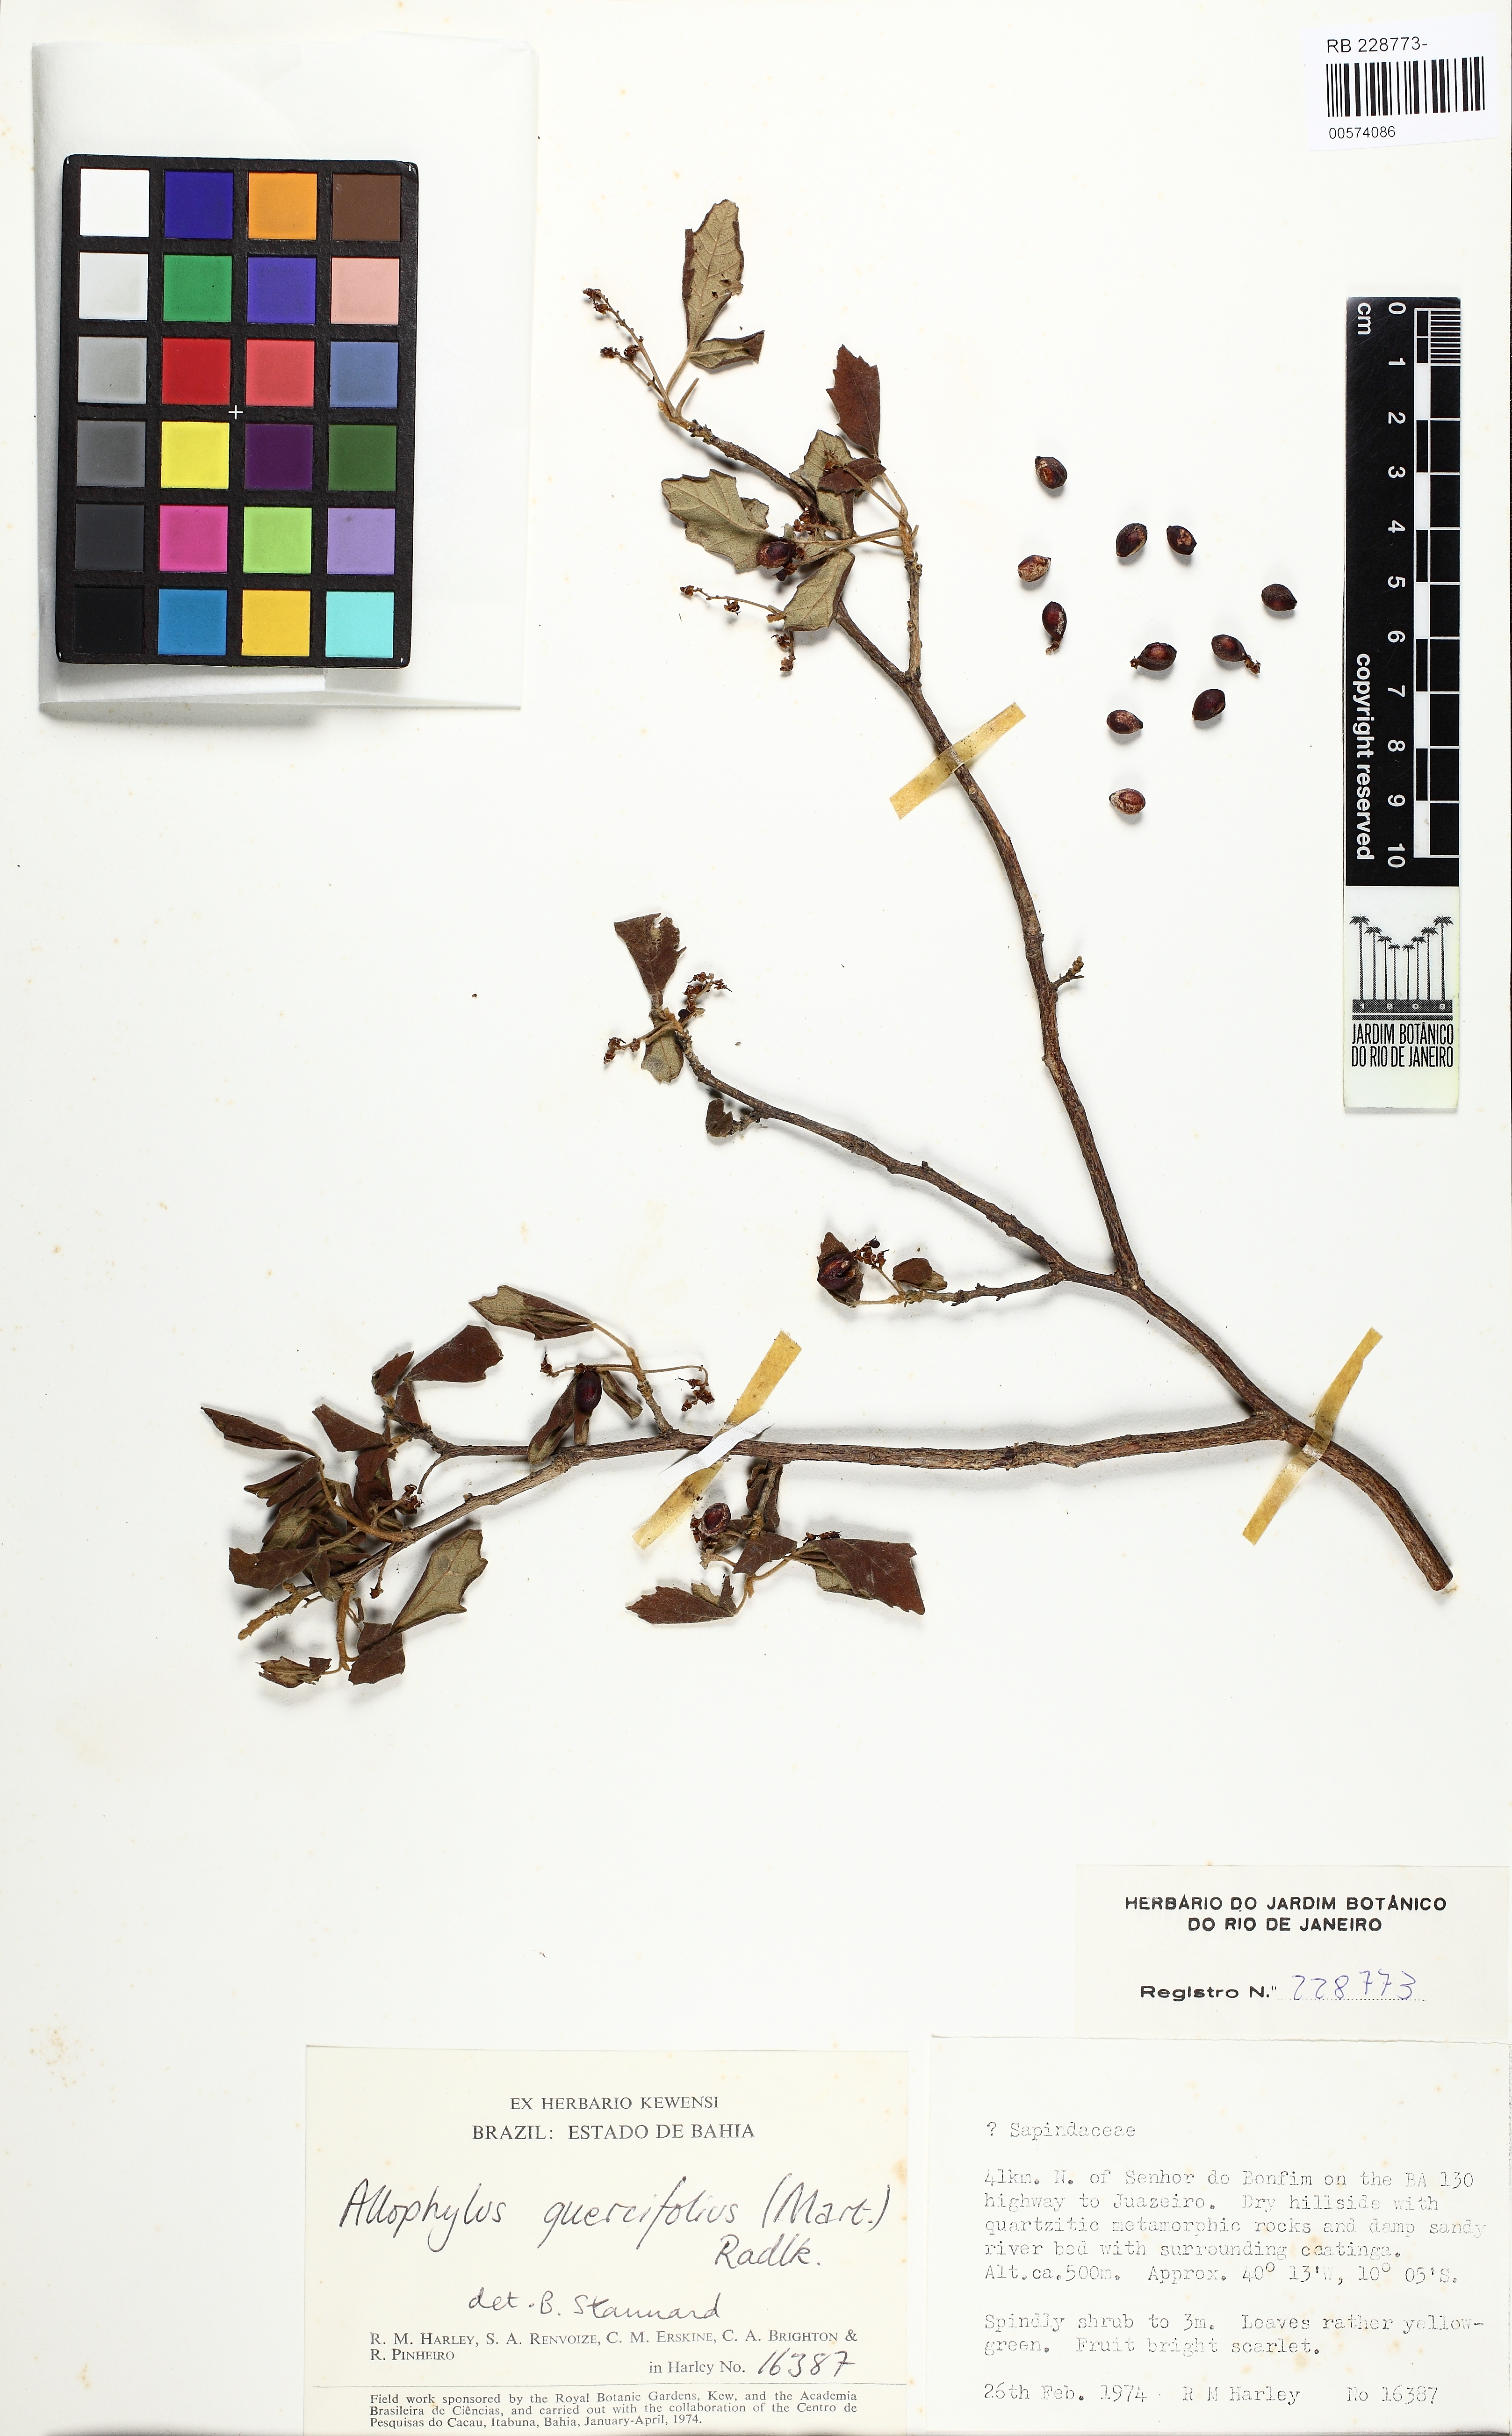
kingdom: Plantae
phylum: Tracheophyta
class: Magnoliopsida
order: Sapindales
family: Sapindaceae
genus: Allophylus
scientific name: Allophylus quercifolius
